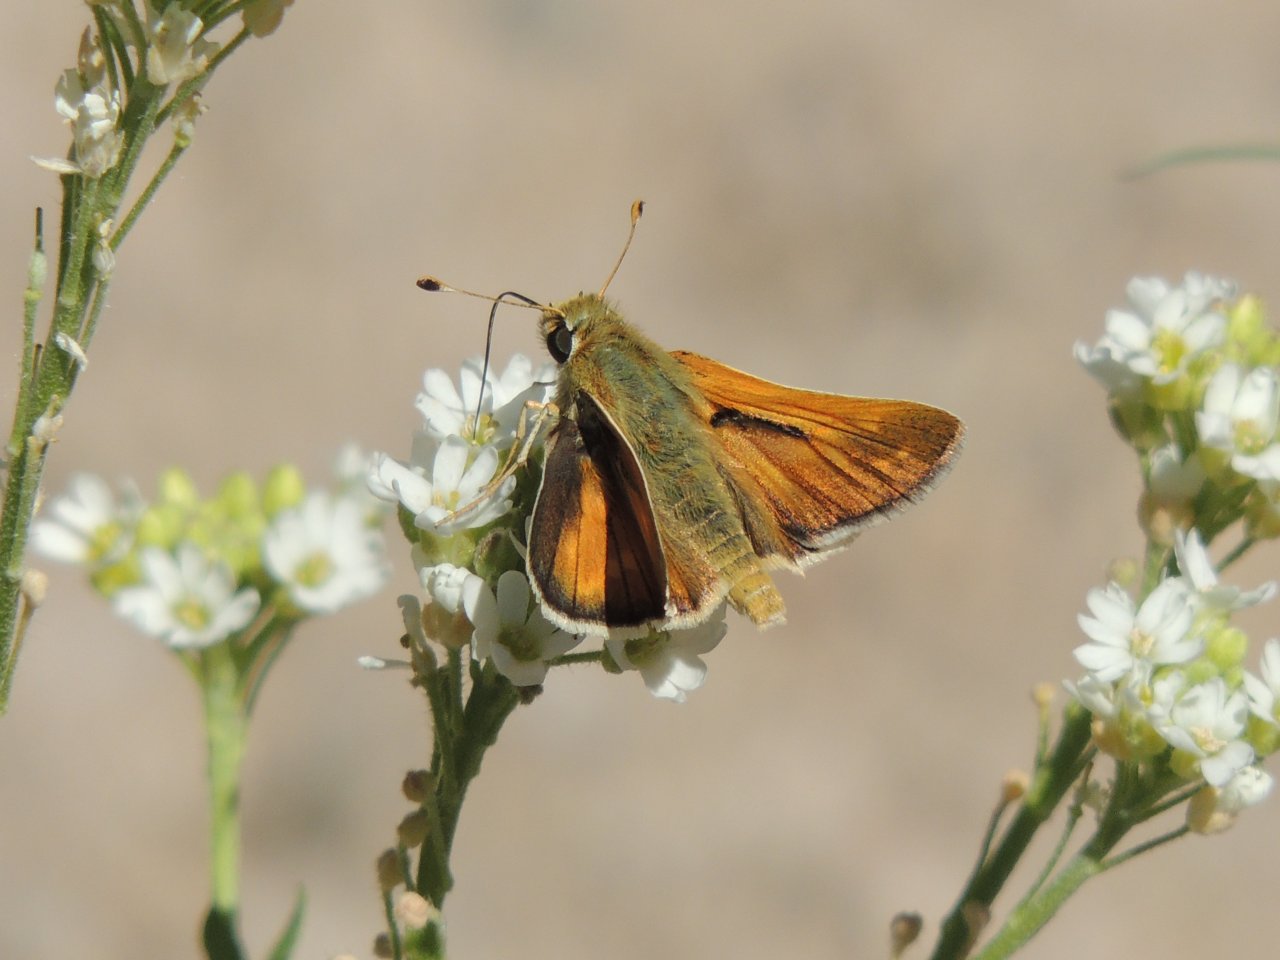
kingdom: Animalia
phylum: Arthropoda
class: Insecta
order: Lepidoptera
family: Hesperiidae
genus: Hesperia
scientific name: Hesperia comma
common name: Western Branded Skipper
